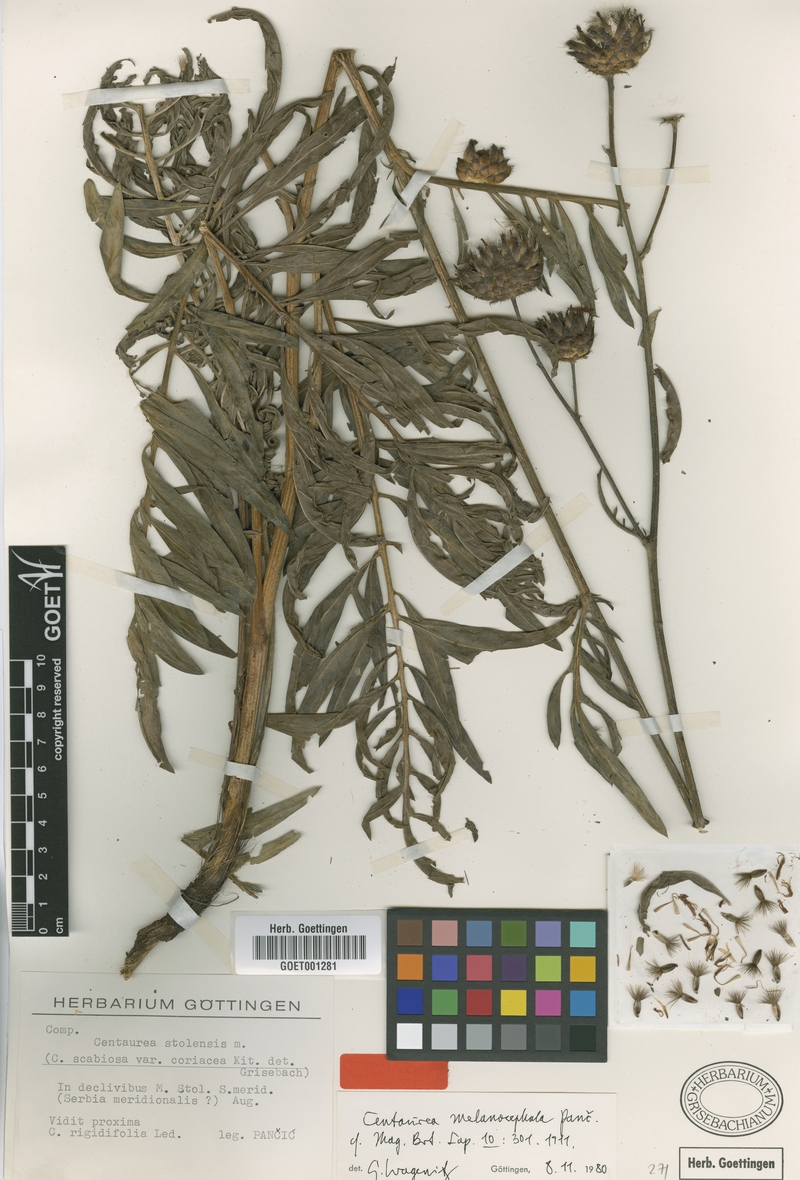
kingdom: Plantae
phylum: Tracheophyta
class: Magnoliopsida
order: Asterales
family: Asteraceae
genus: Centaurea
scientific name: Centaurea melanocephala
